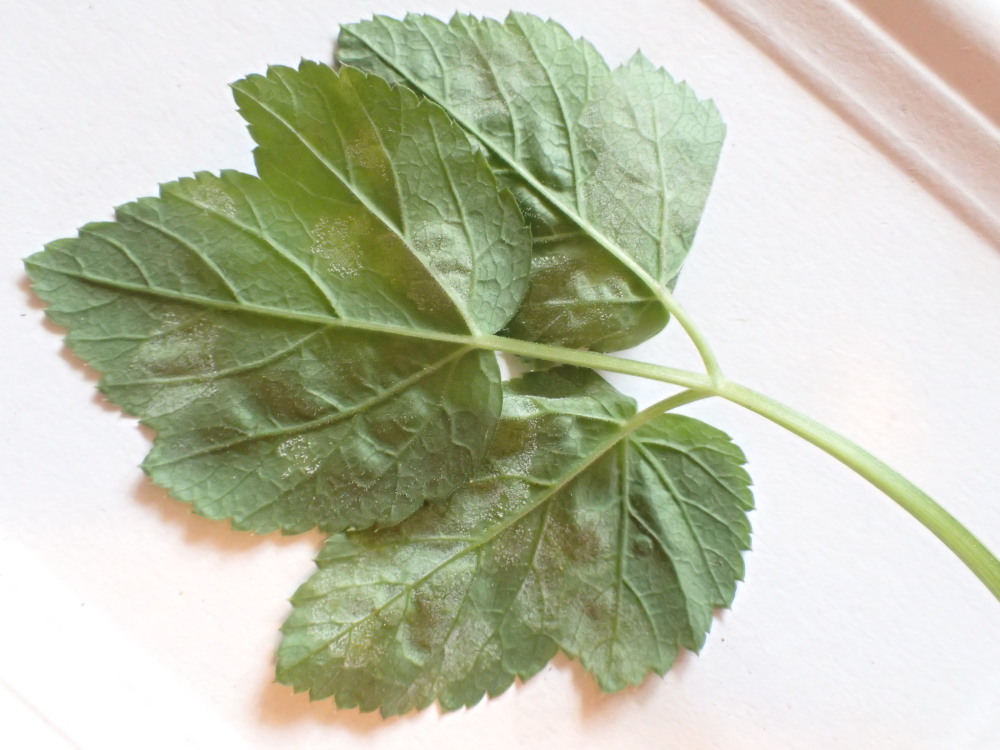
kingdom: Chromista
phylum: Oomycota
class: Peronosporea
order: Peronosporales
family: Peronosporaceae
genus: Peronospora
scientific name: Peronospora crustosa
